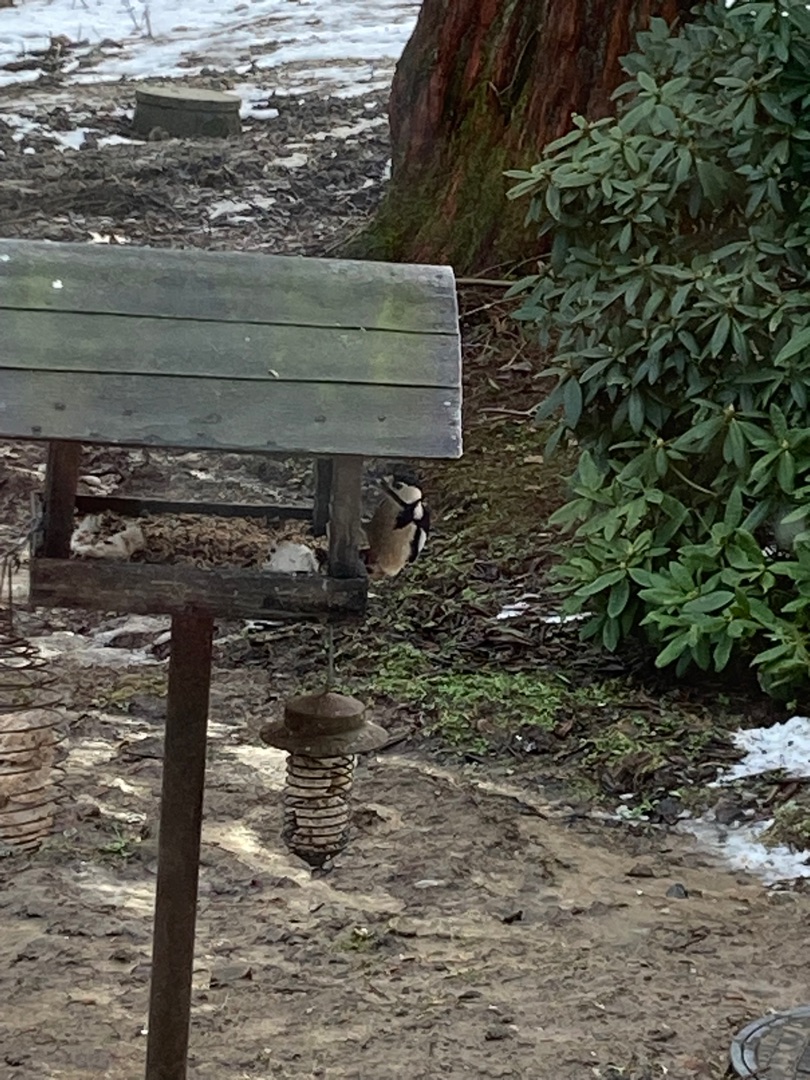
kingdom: Animalia
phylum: Chordata
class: Aves
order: Piciformes
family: Picidae
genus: Dendrocopos
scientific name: Dendrocopos major
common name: Stor flagspætte
